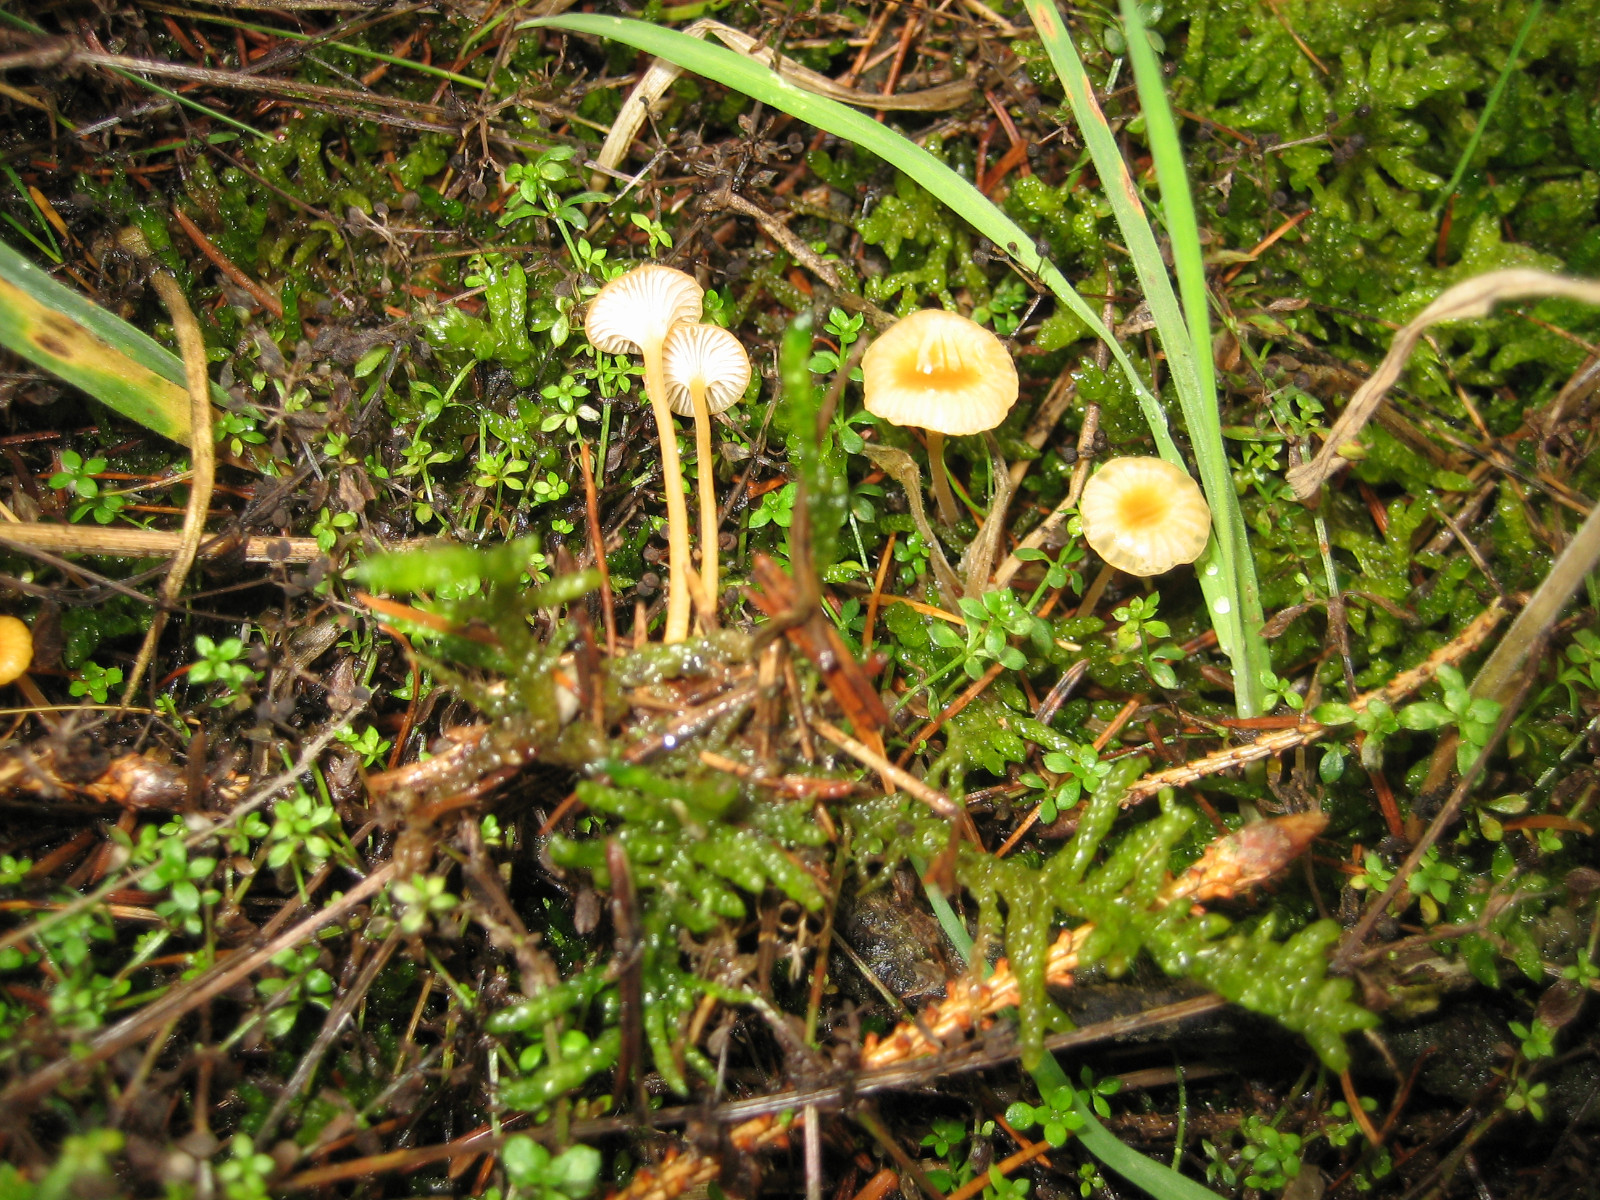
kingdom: Fungi
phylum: Basidiomycota
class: Agaricomycetes
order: Hymenochaetales
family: Rickenellaceae
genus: Rickenella
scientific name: Rickenella fibula
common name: orange mosnavlehat
